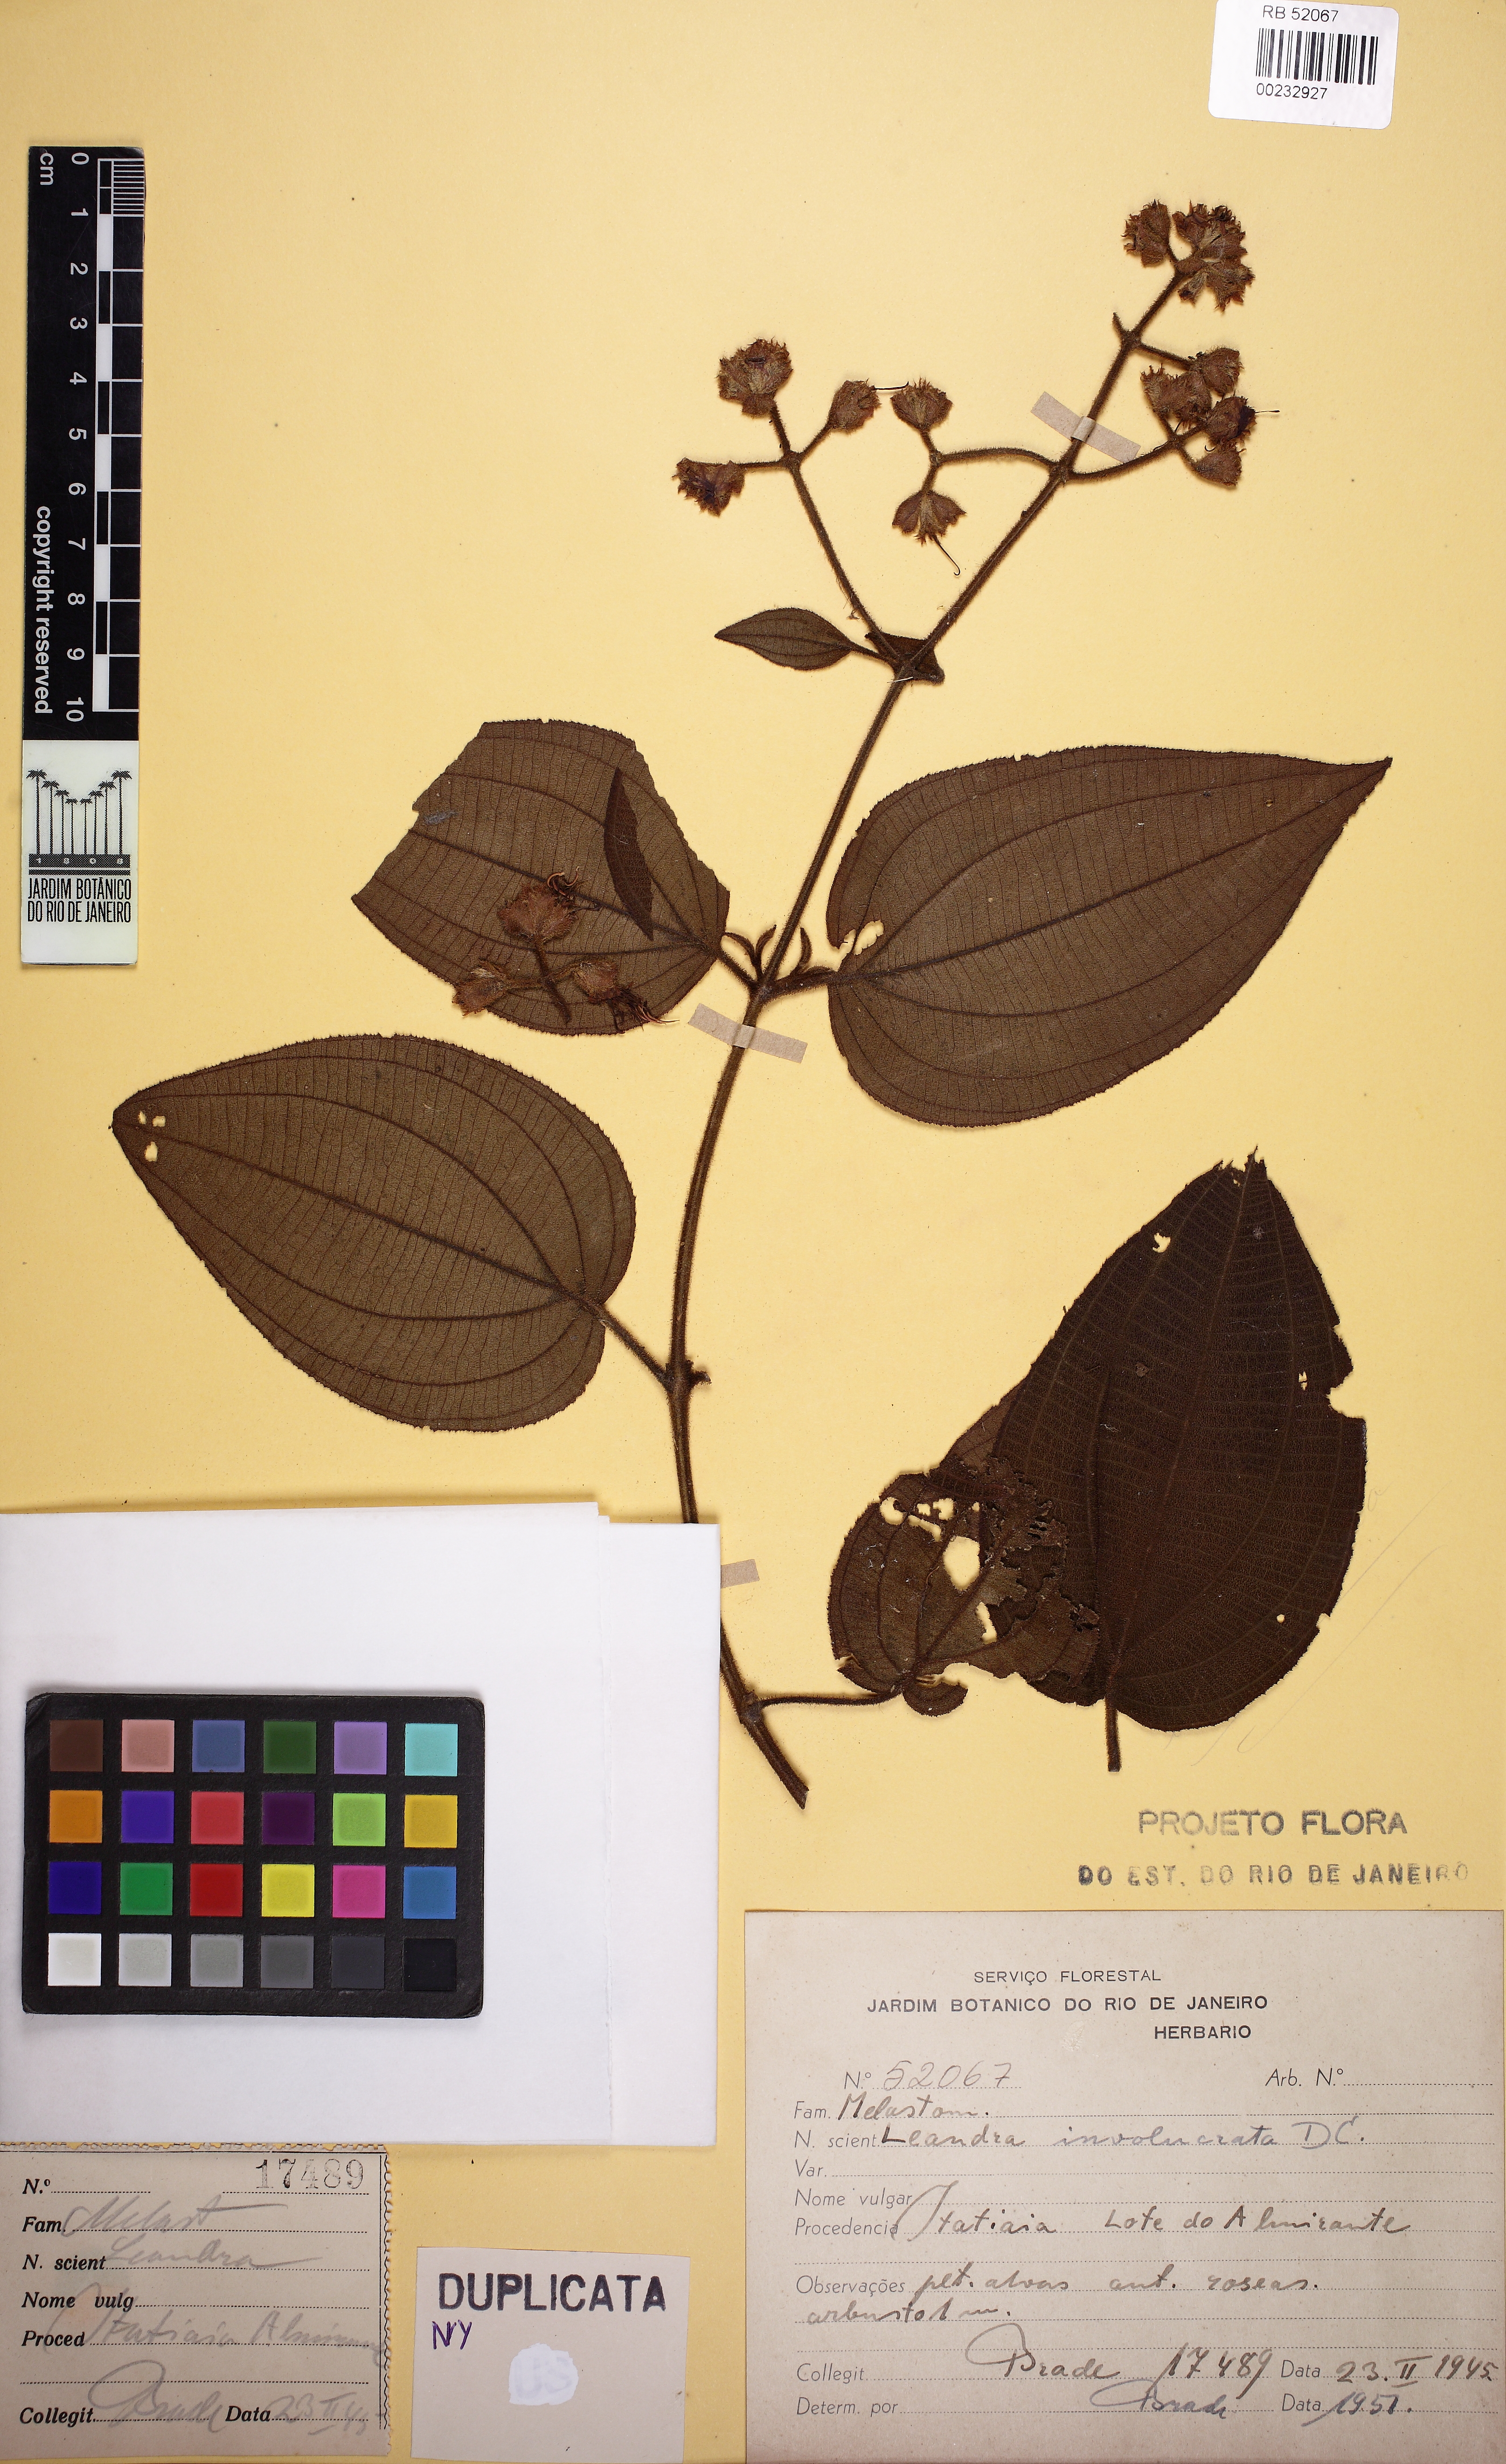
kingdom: Plantae
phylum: Tracheophyta
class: Magnoliopsida
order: Myrtales
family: Melastomataceae
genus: Miconia
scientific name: Miconia leaumbellata
